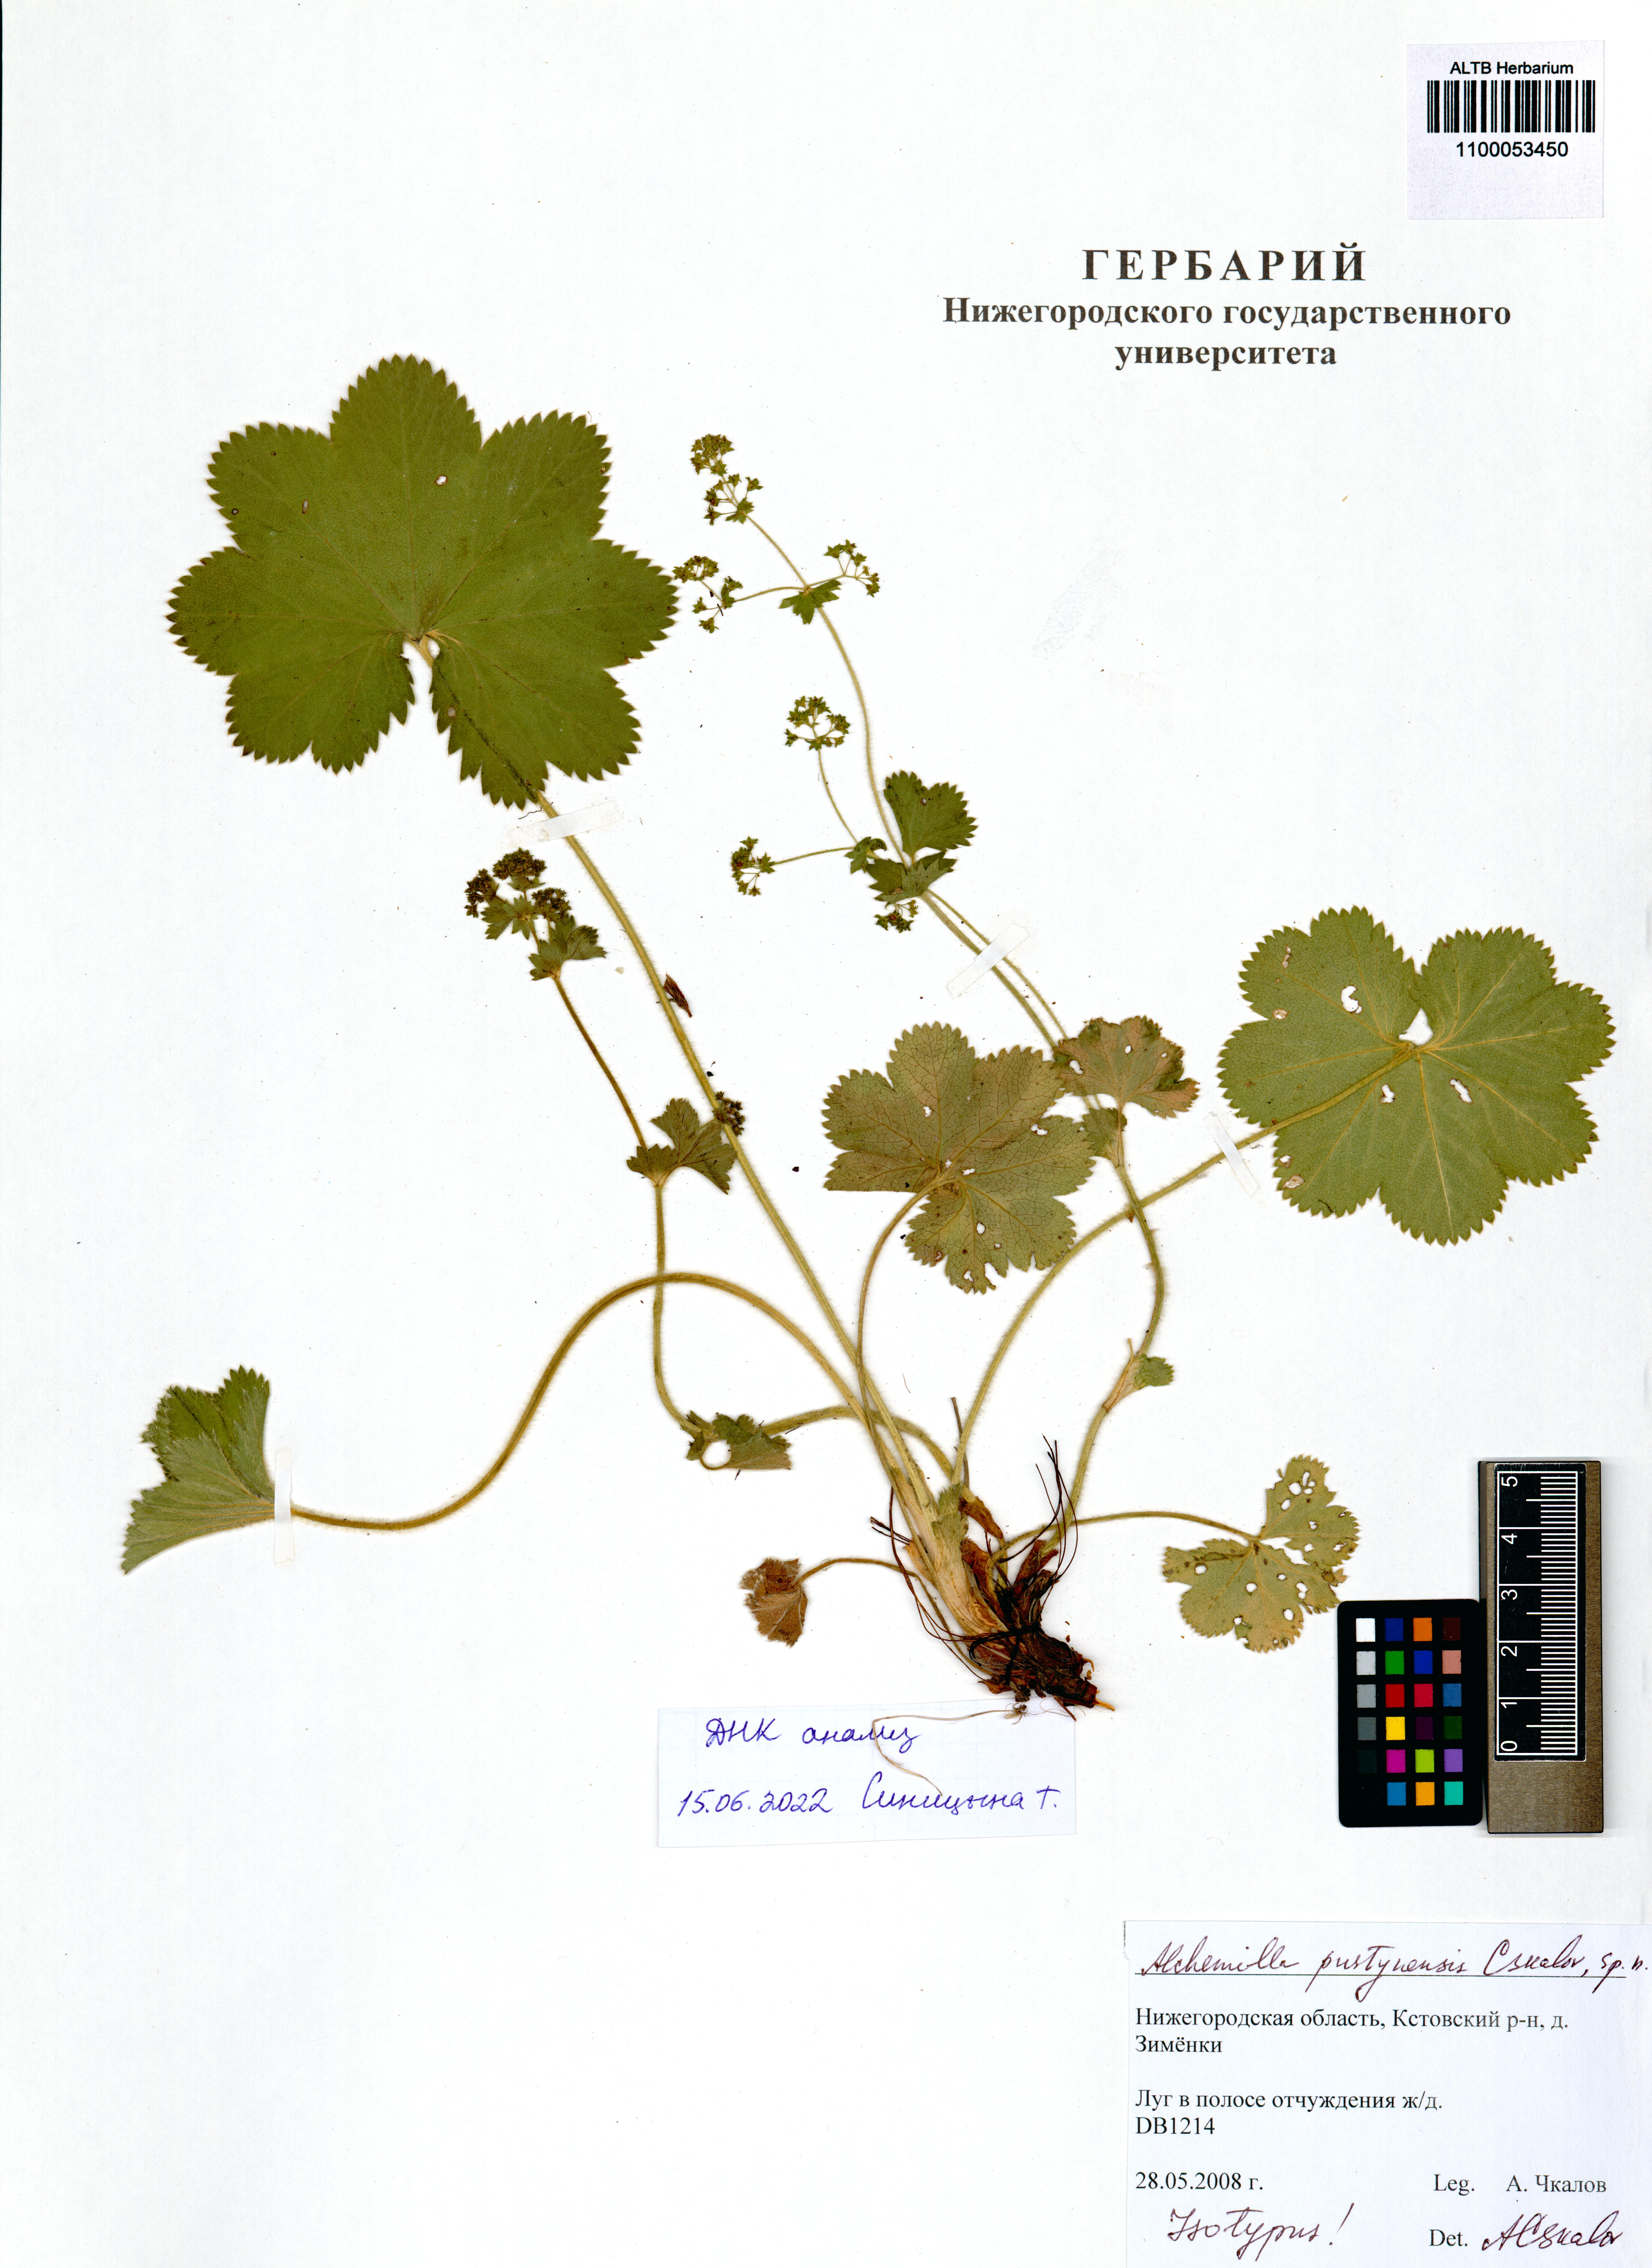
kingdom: Plantae
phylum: Tracheophyta
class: Magnoliopsida
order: Rosales
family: Rosaceae
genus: Alchemilla
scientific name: Alchemilla pustynensis
